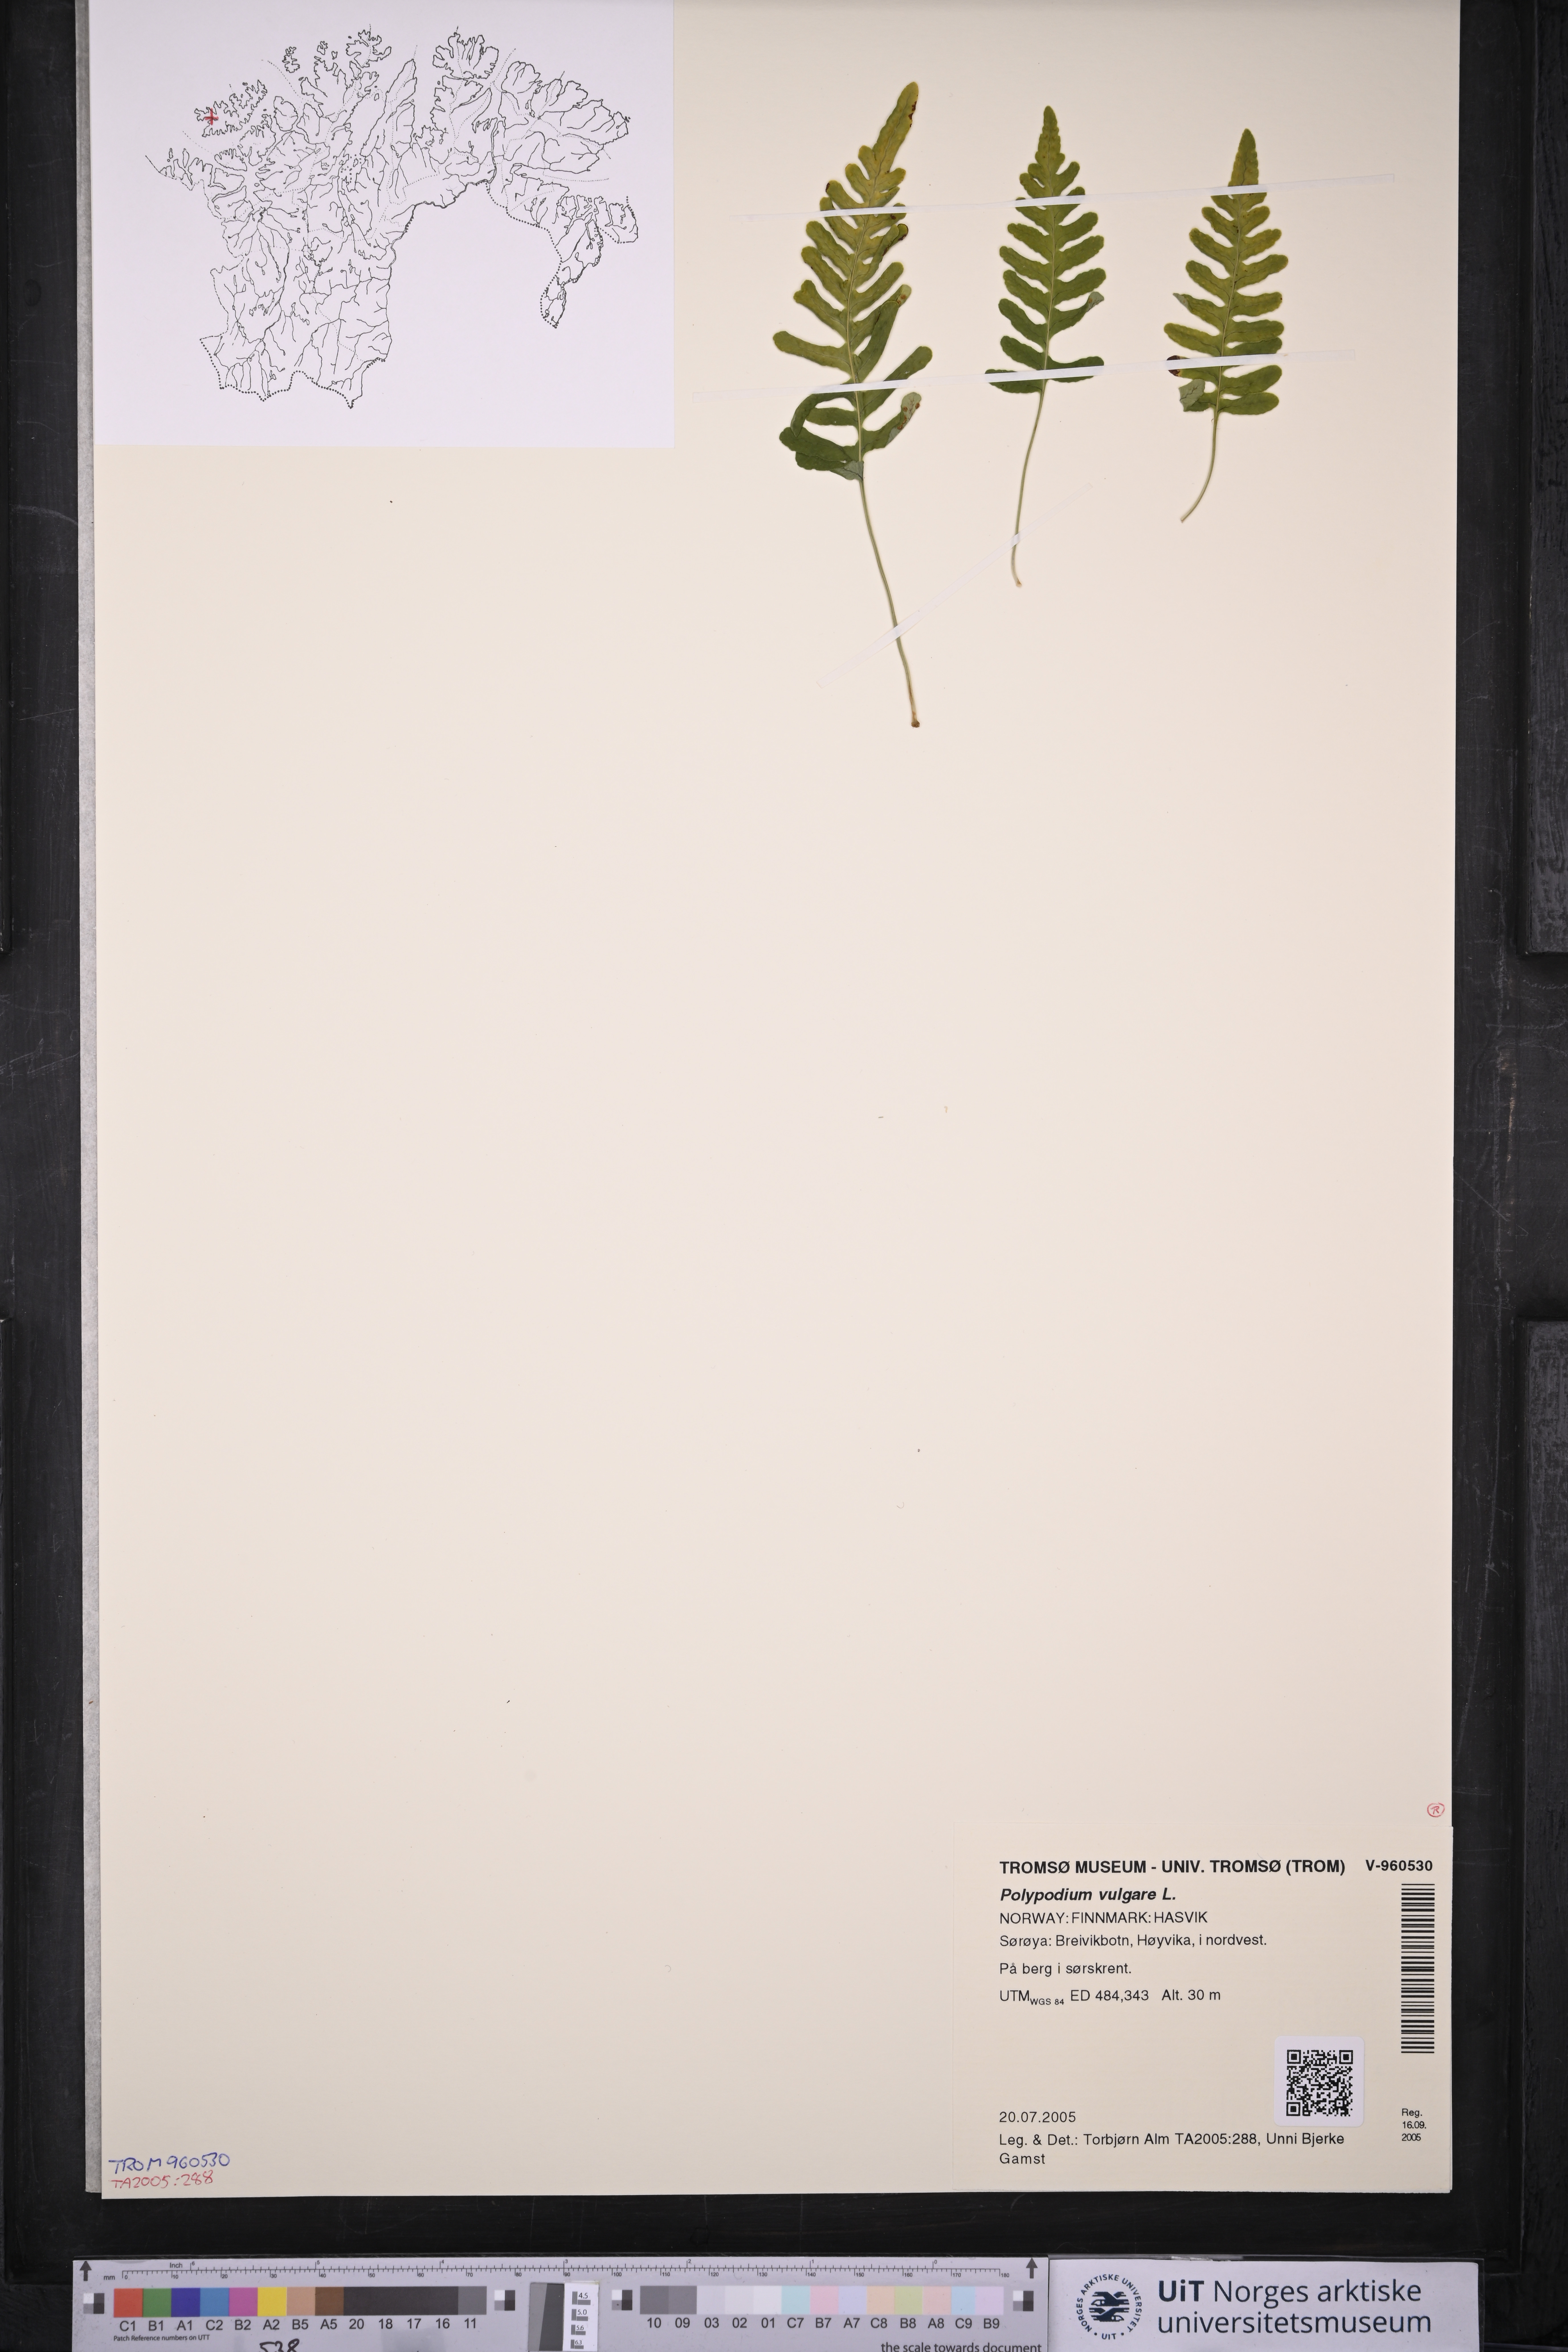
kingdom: Plantae
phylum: Tracheophyta
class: Polypodiopsida
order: Polypodiales
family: Polypodiaceae
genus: Polypodium
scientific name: Polypodium vulgare
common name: Common polypody
